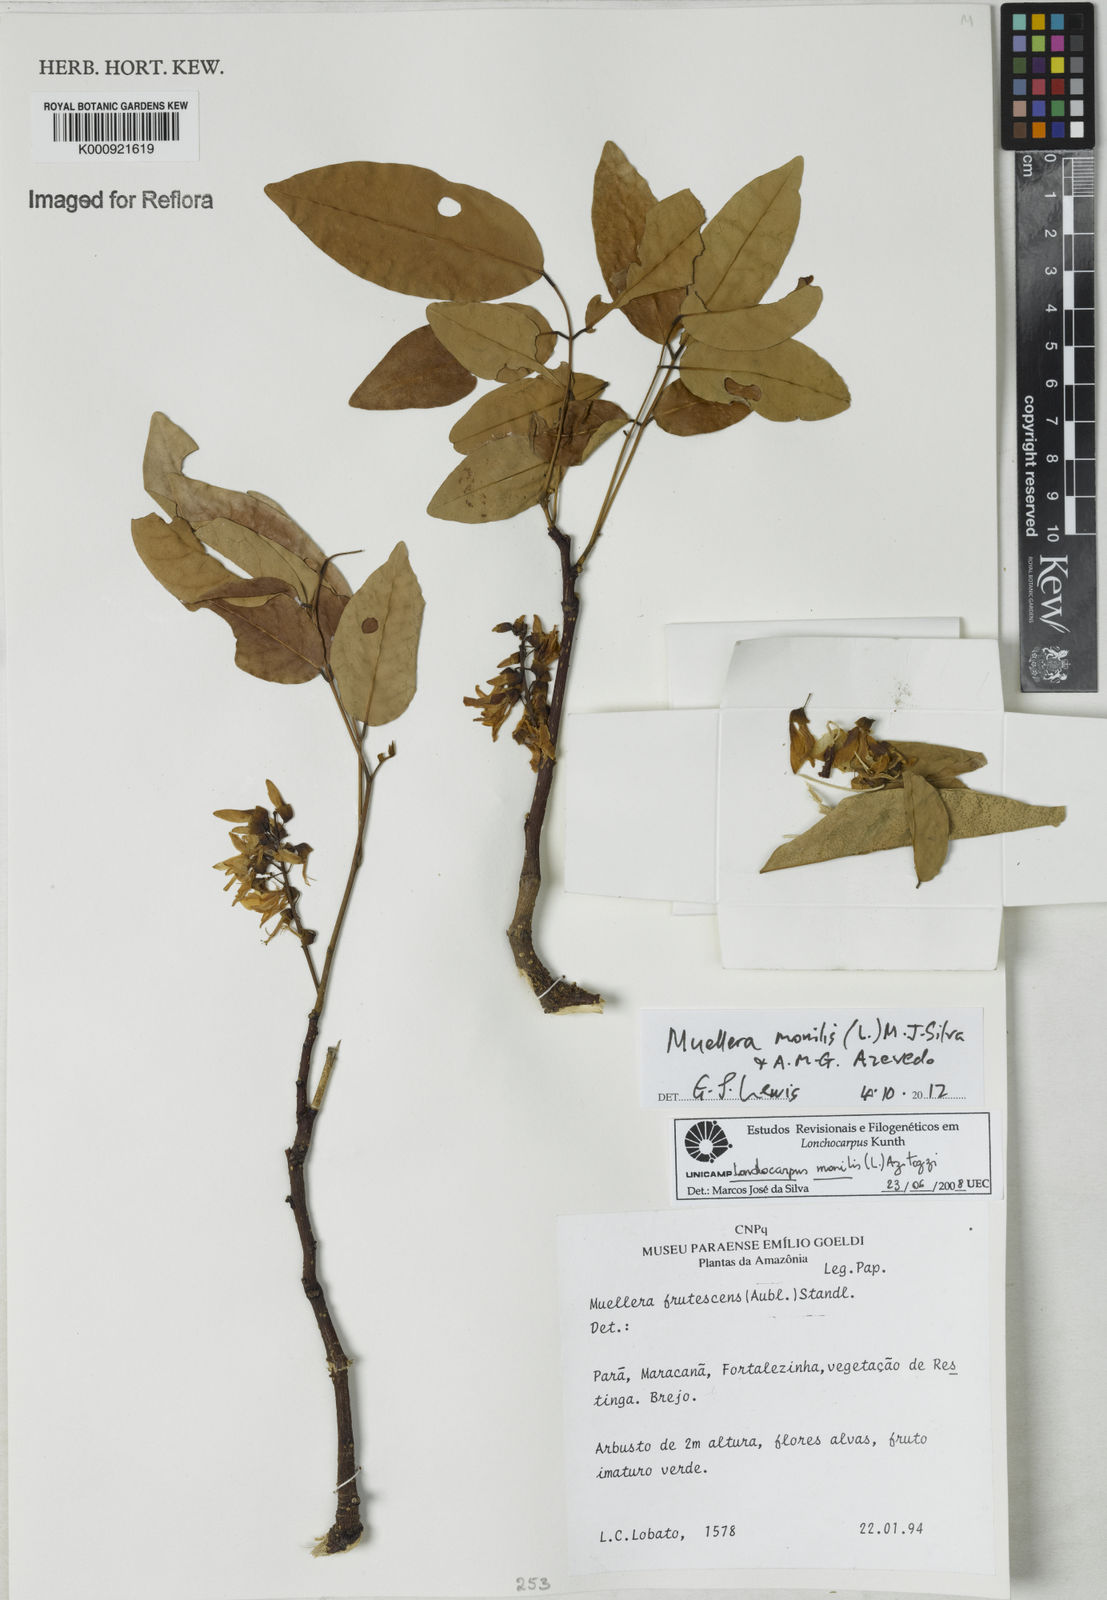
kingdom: Plantae
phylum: Tracheophyta
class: Magnoliopsida
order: Fabales
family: Fabaceae
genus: Muellera
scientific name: Muellera monilis
